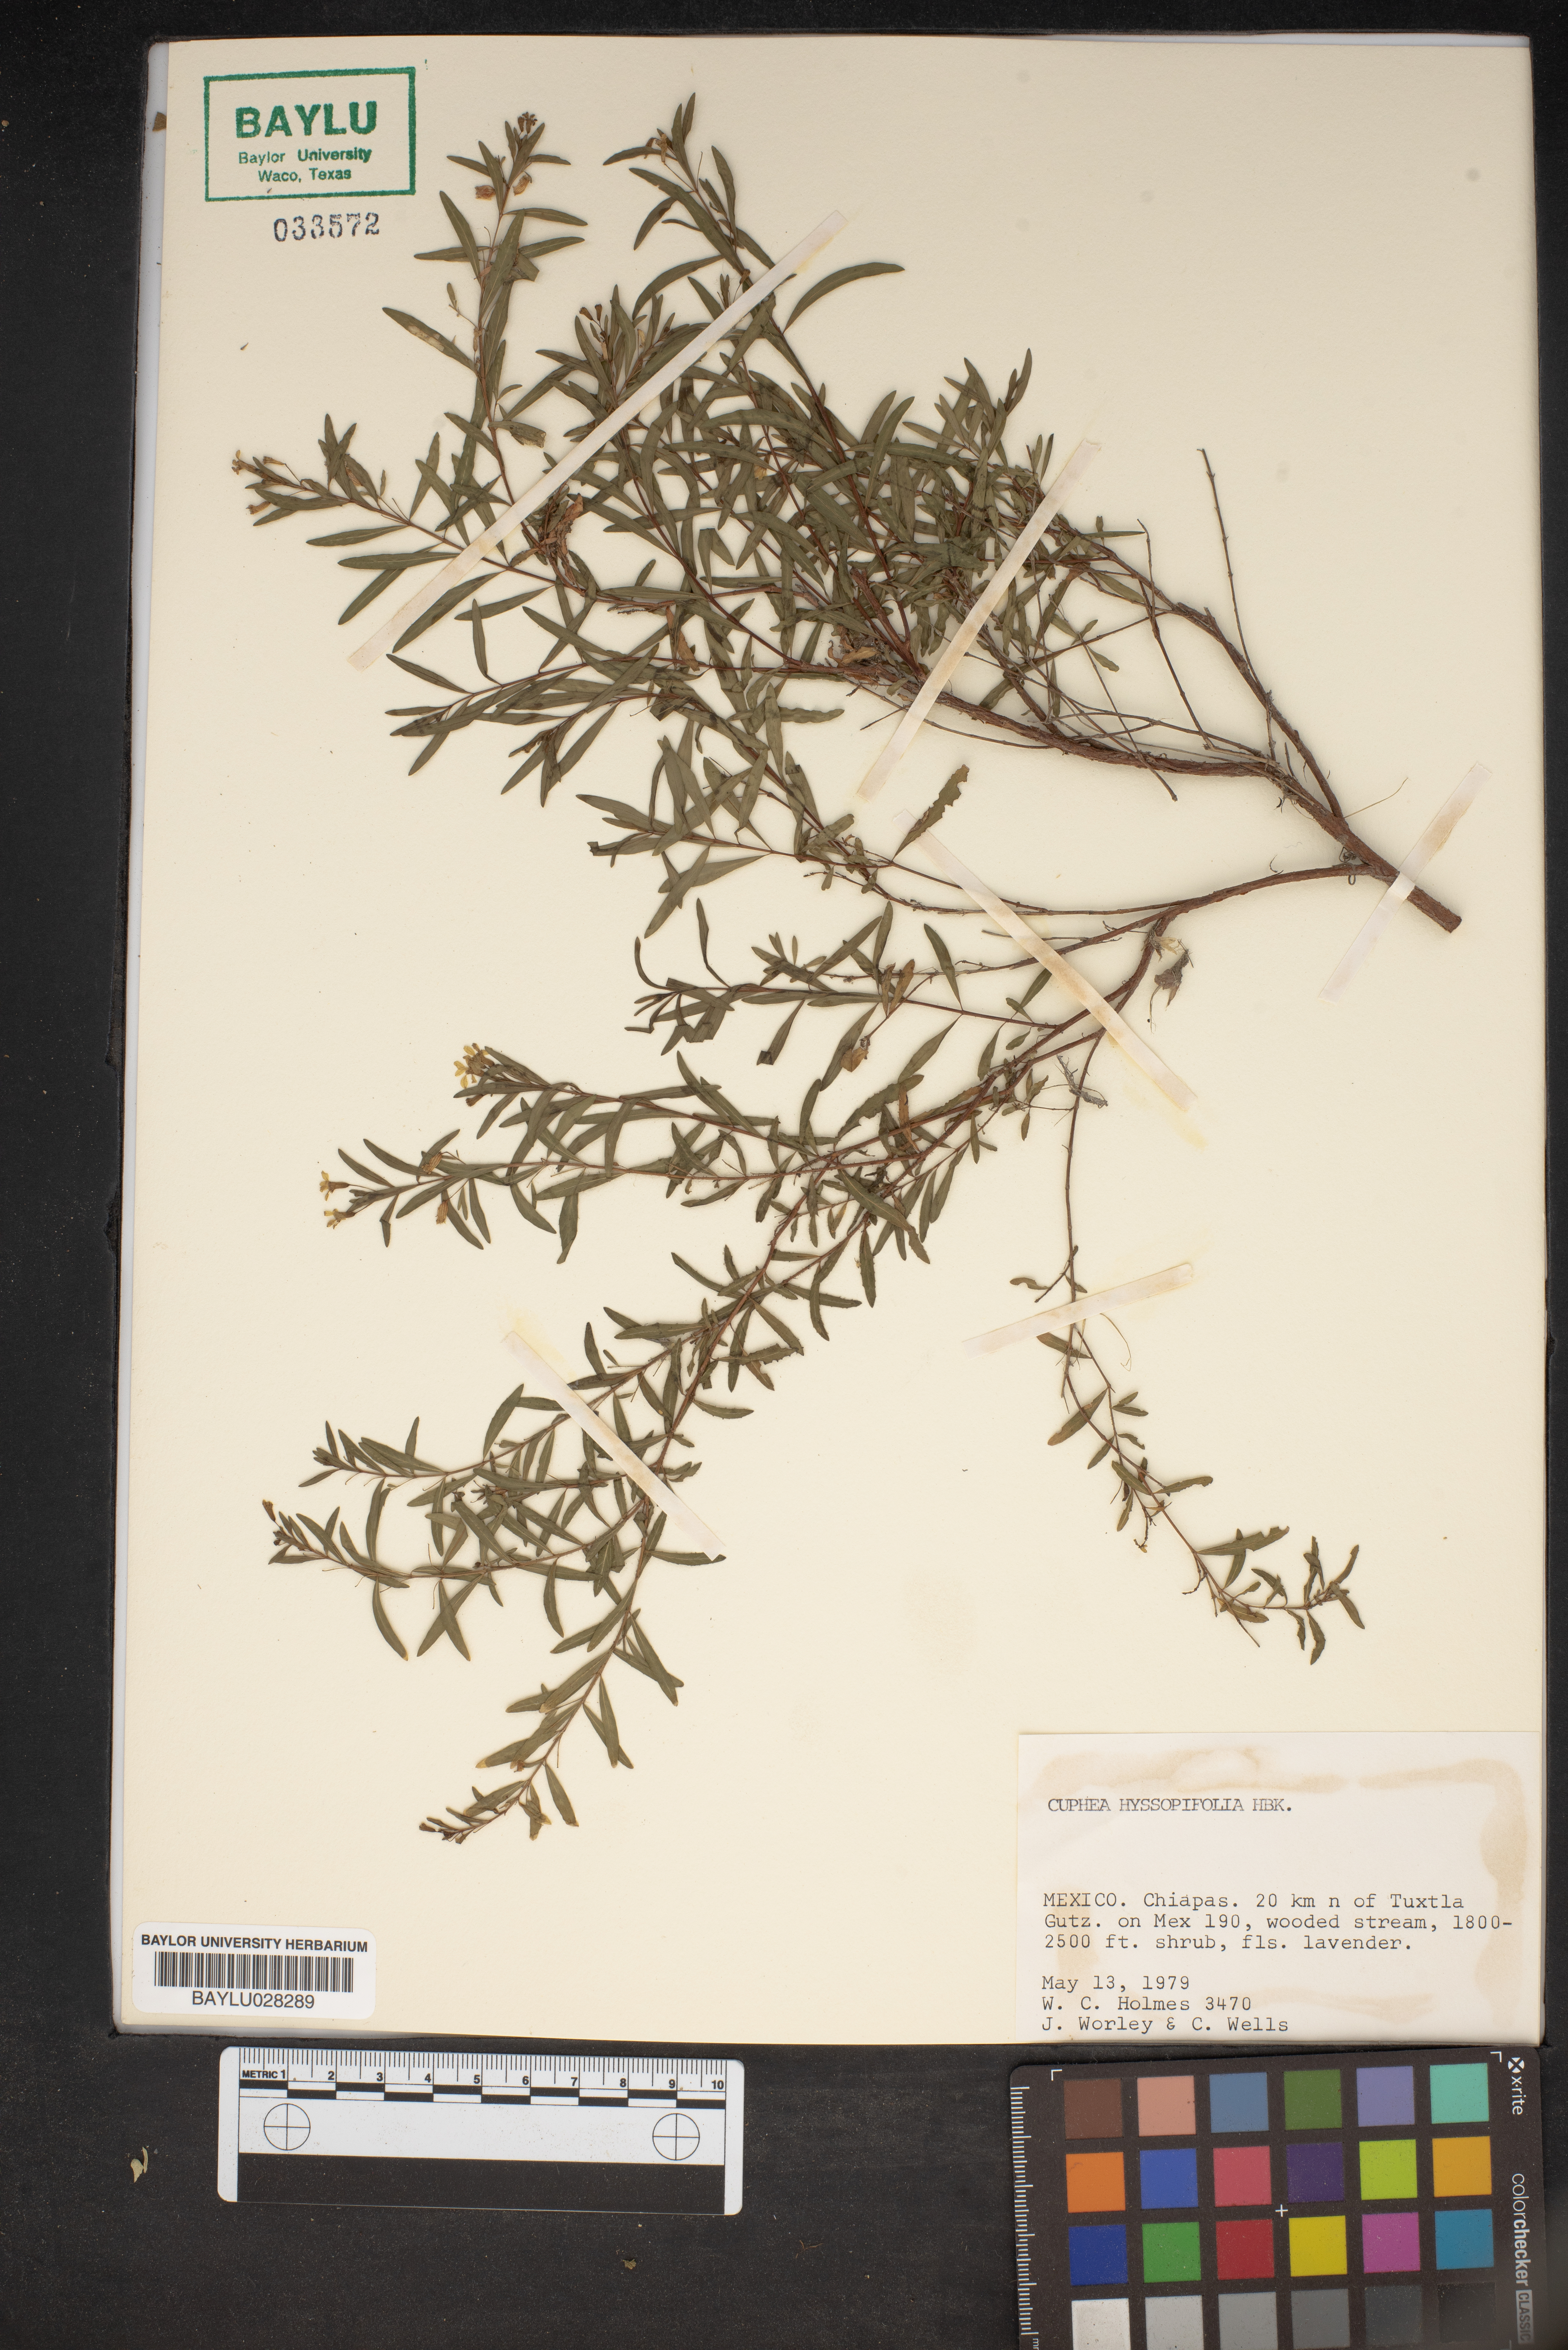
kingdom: Plantae
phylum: Tracheophyta
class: Magnoliopsida
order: Myrtales
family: Lythraceae
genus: Cuphea
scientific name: Cuphea hyssopifolia
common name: False heather
